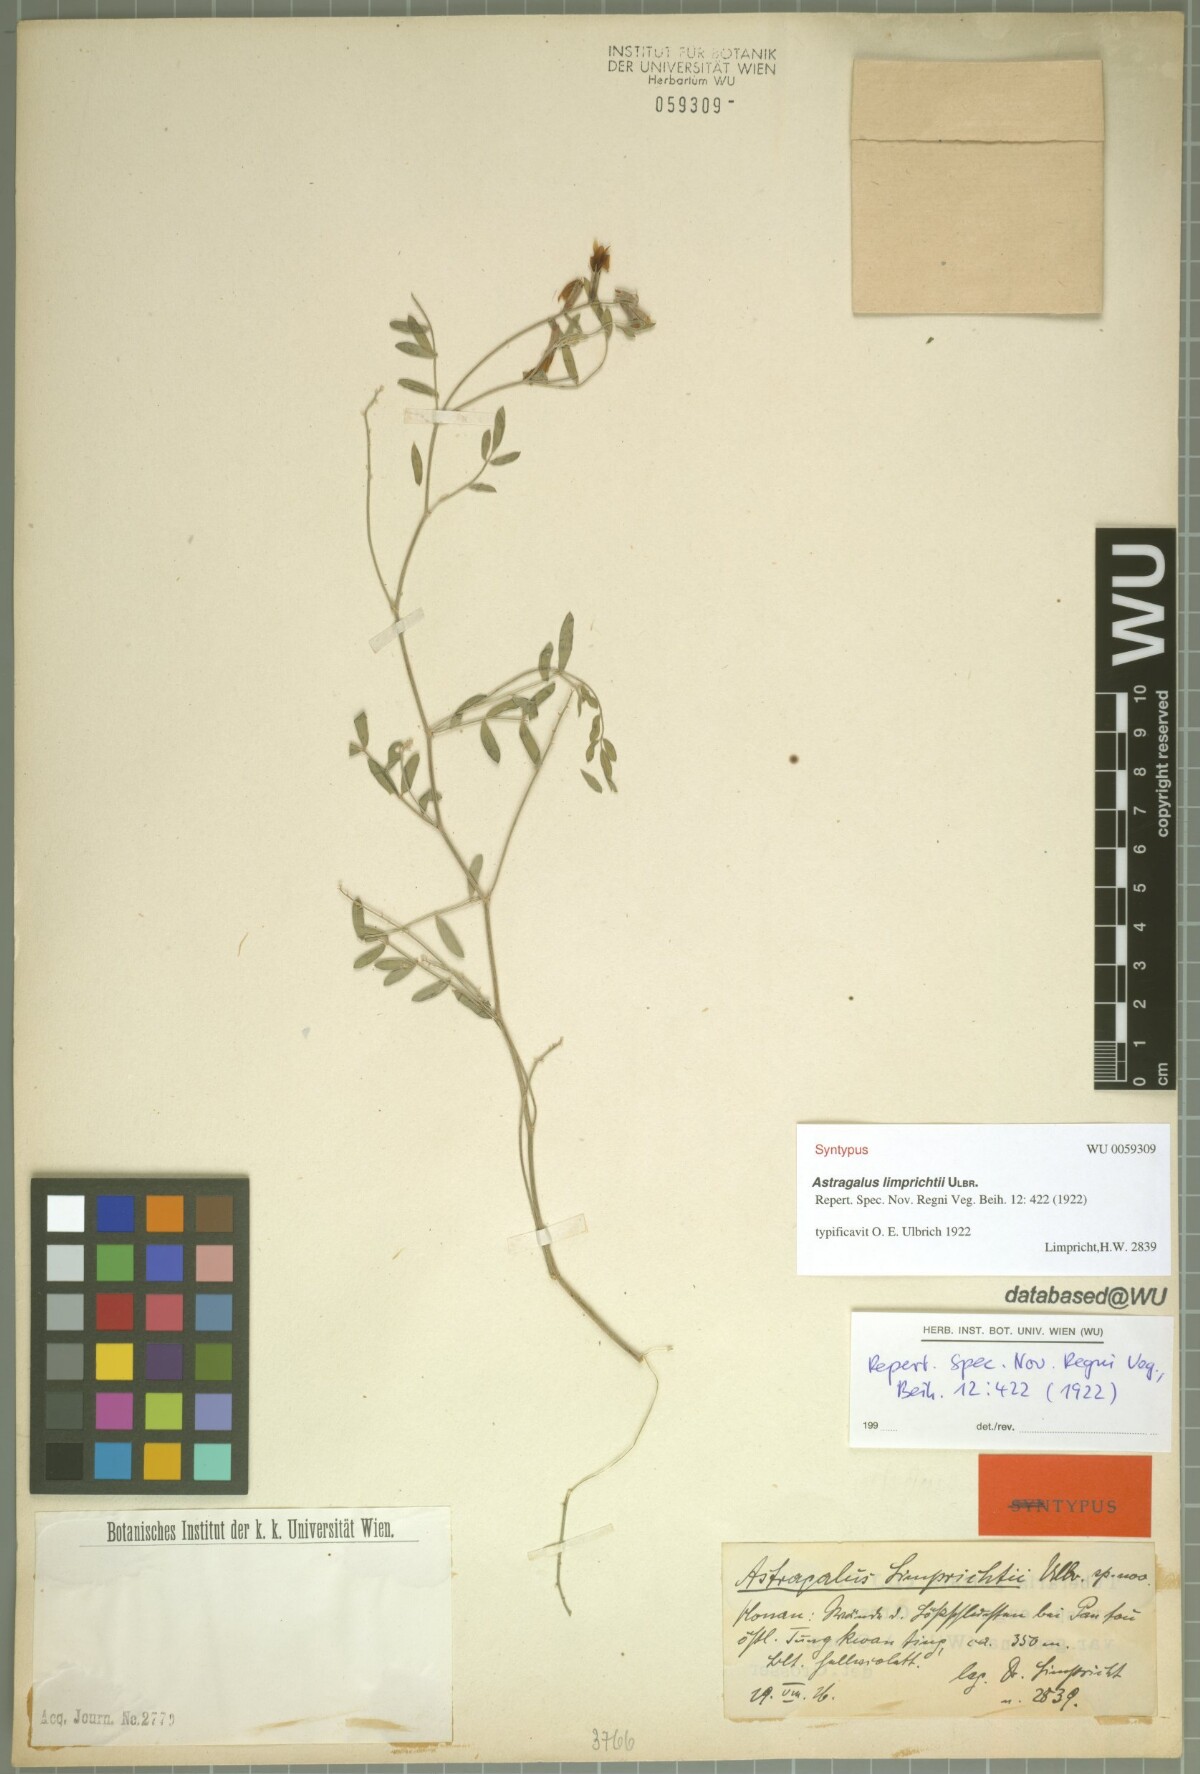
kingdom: Plantae
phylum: Tracheophyta
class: Magnoliopsida
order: Fabales
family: Fabaceae
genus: Astragalus
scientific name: Astragalus limprichtii
